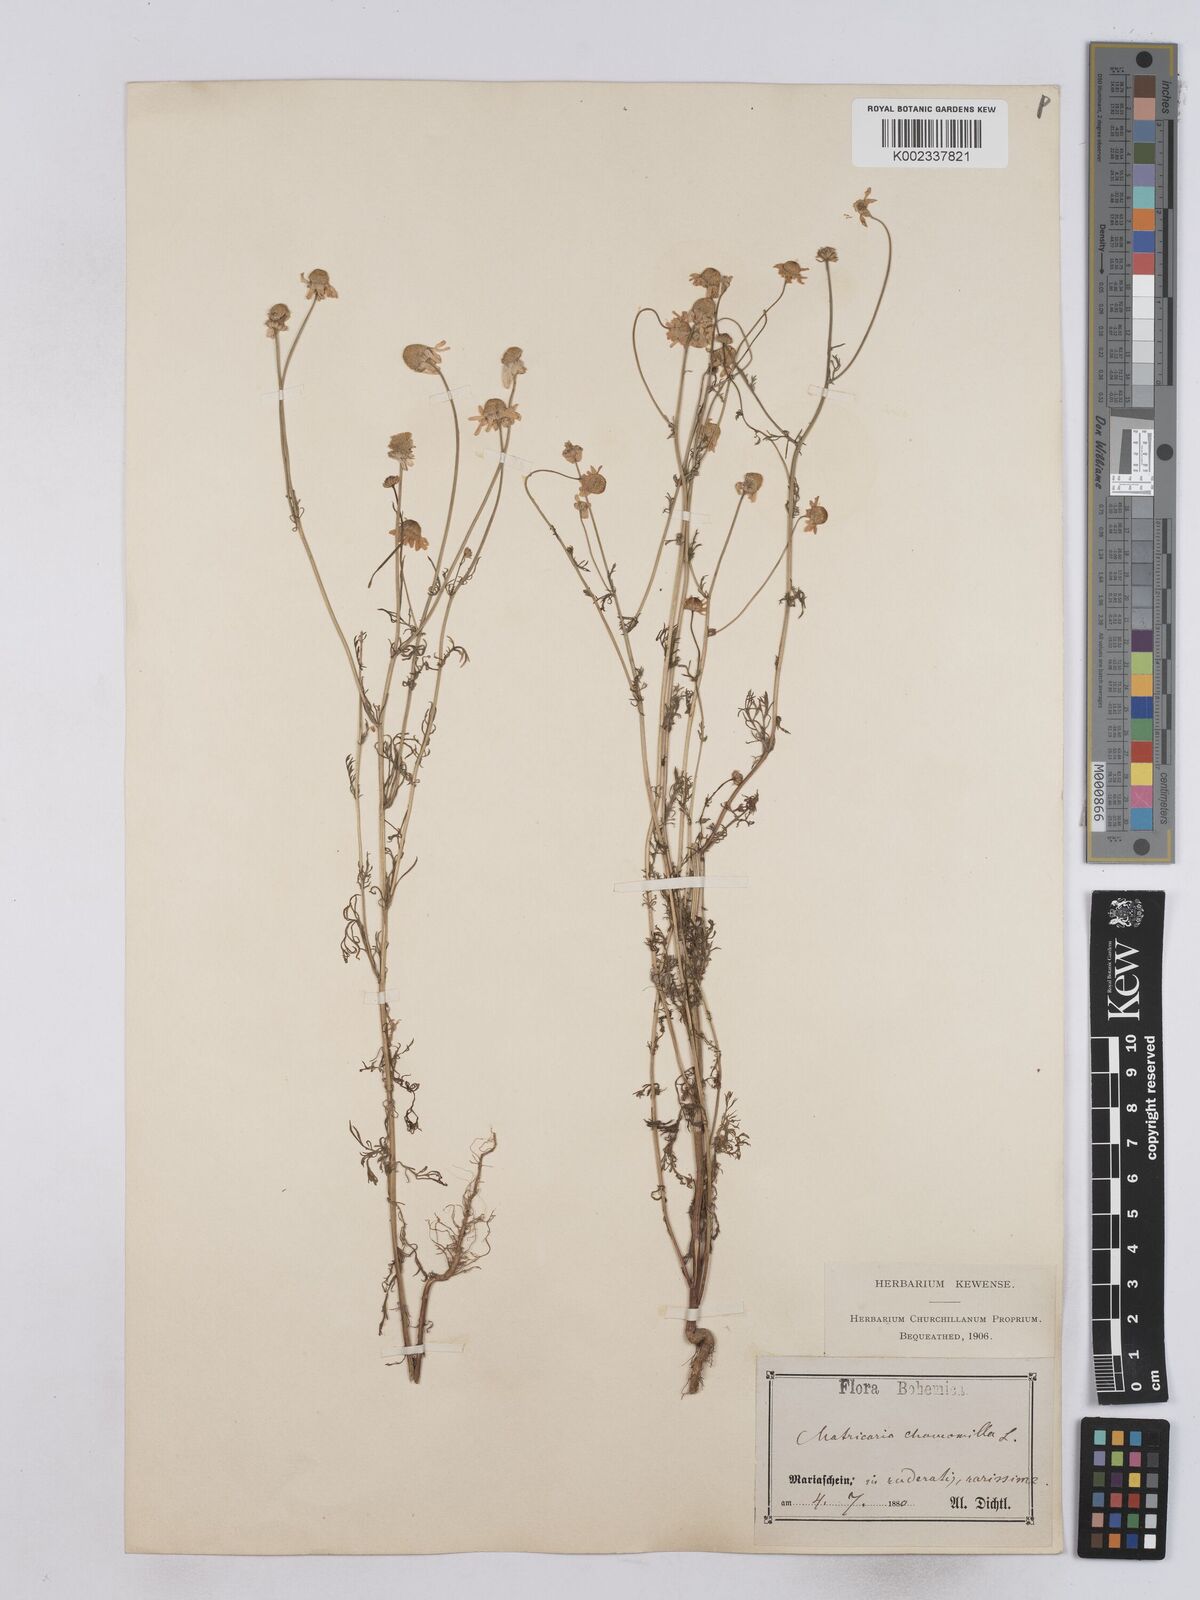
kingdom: Plantae
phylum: Tracheophyta
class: Magnoliopsida
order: Asterales
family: Asteraceae
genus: Matricaria
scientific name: Matricaria chamomilla
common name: Scented mayweed
